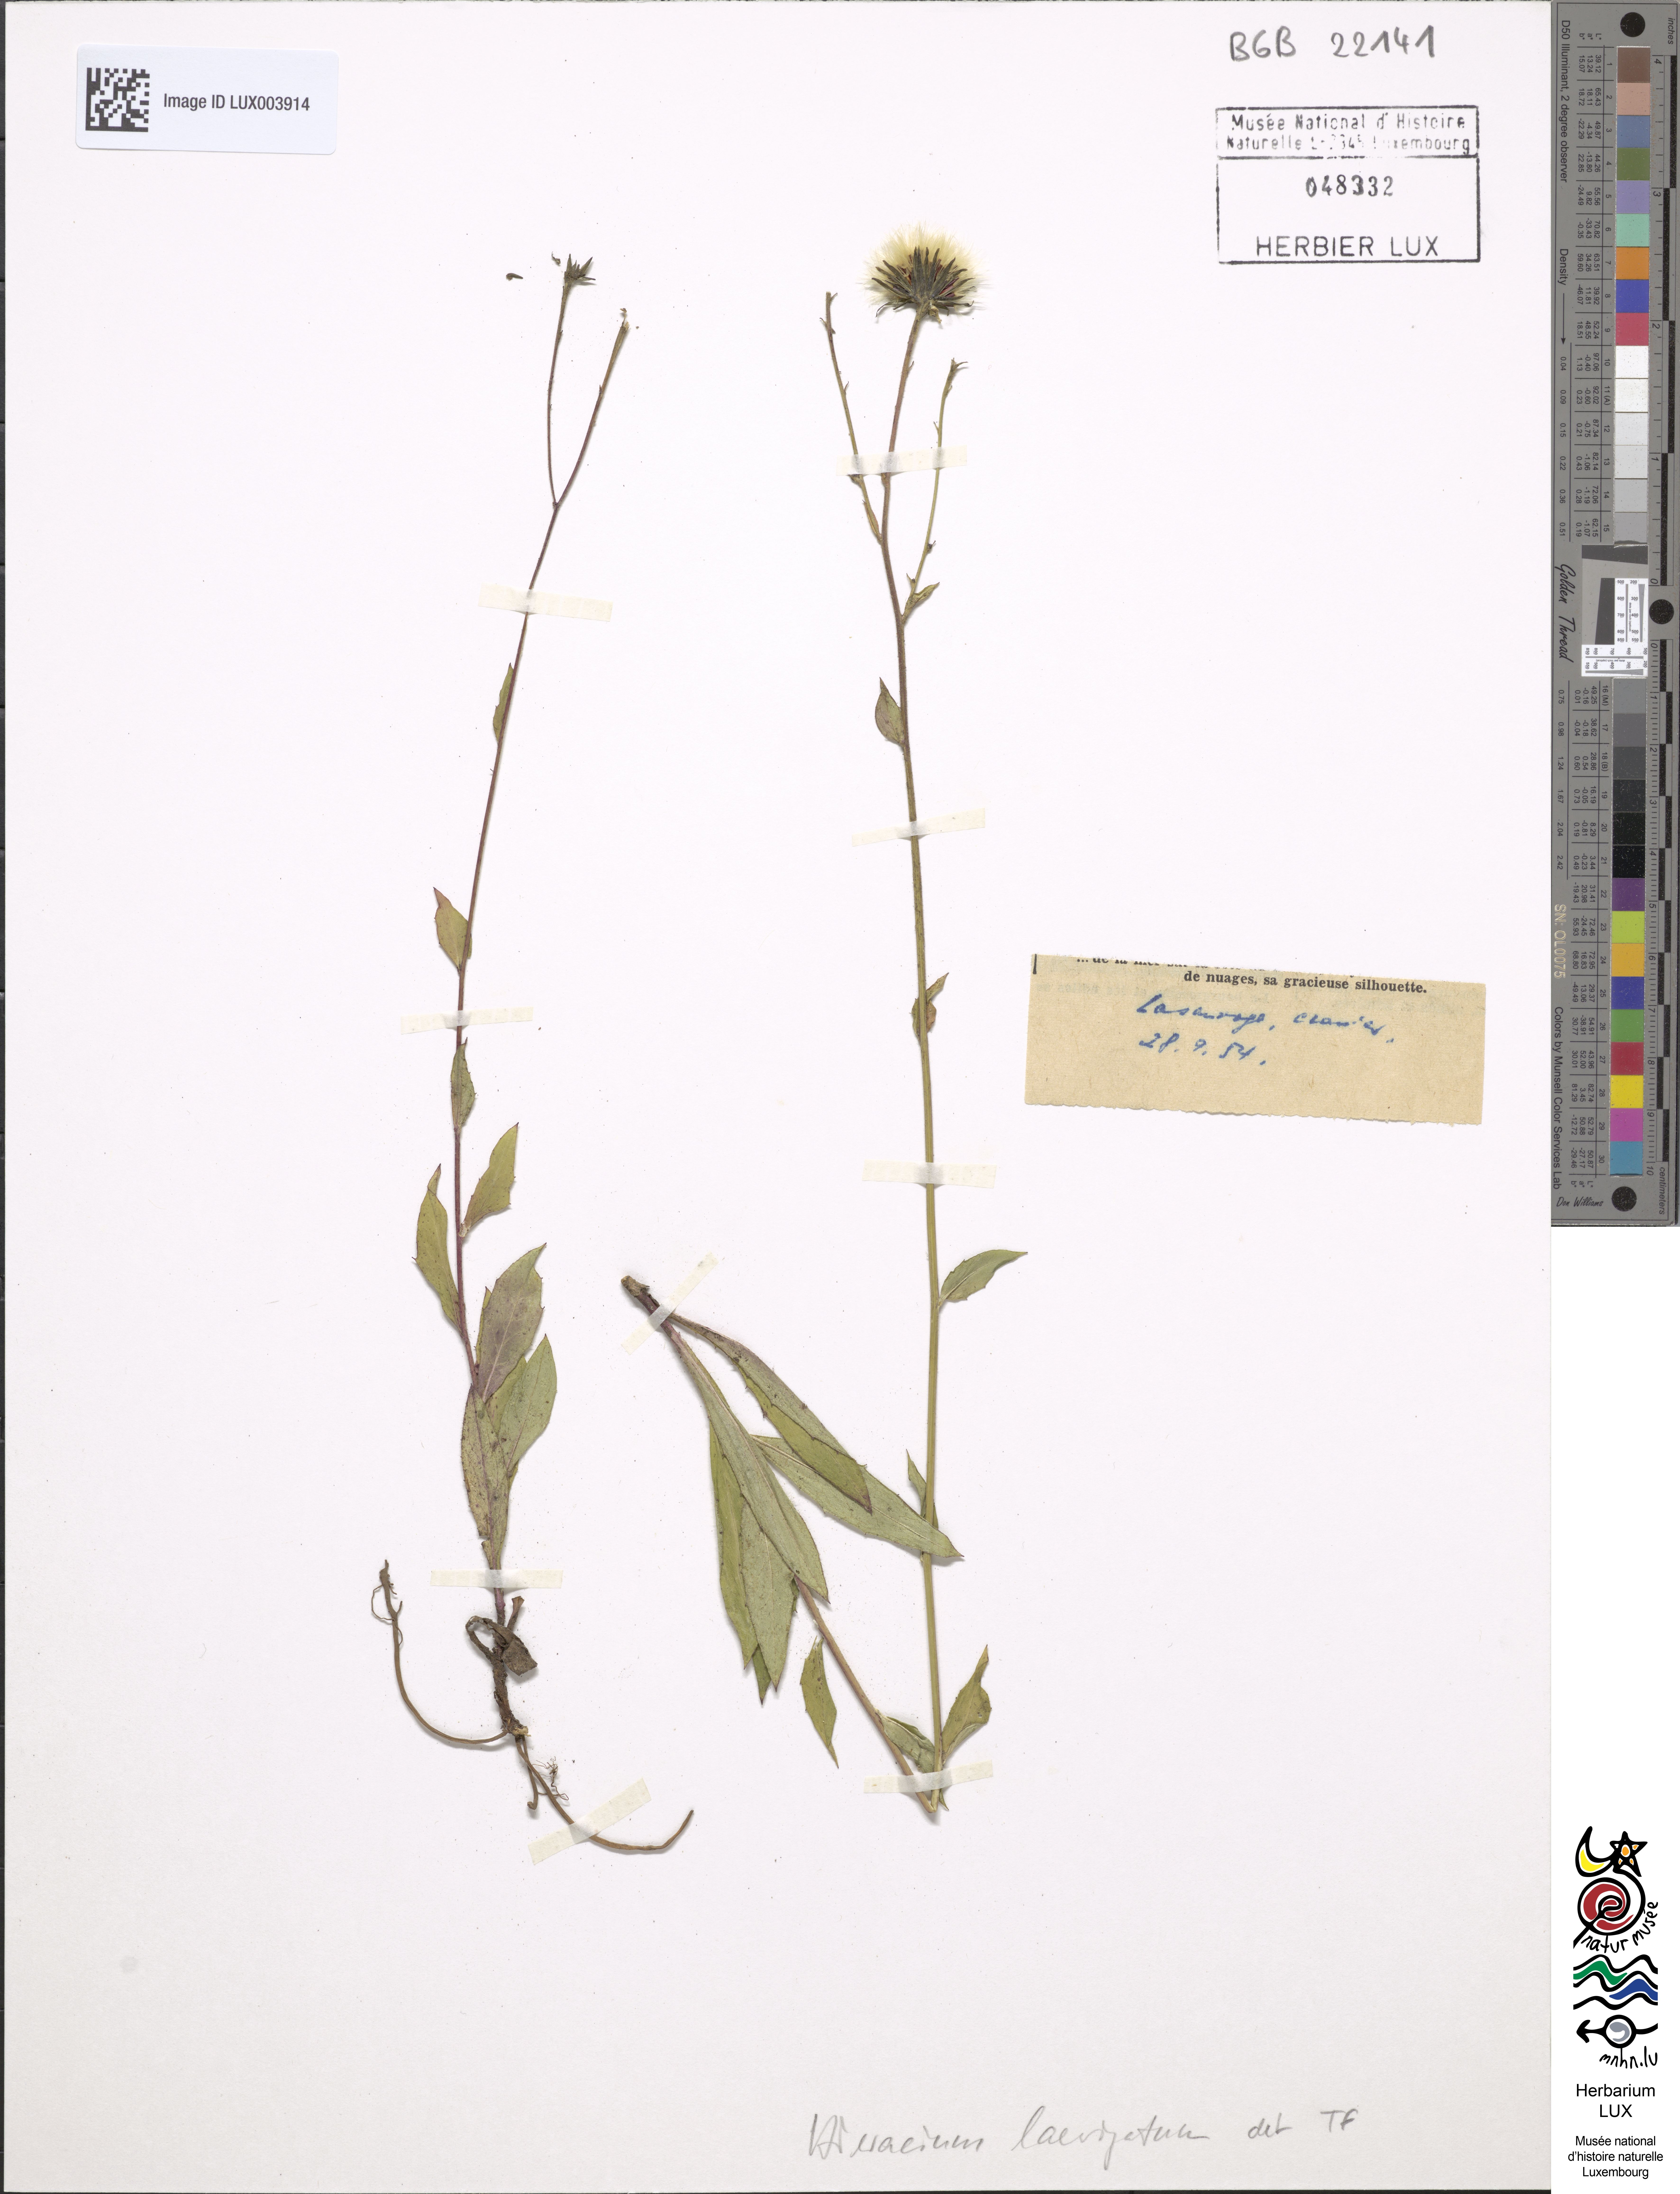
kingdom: Plantae
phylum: Tracheophyta
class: Magnoliopsida
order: Asterales
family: Asteraceae
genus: Hieracium
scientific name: Hieracium laevigatum
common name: Smooth hawkweed
